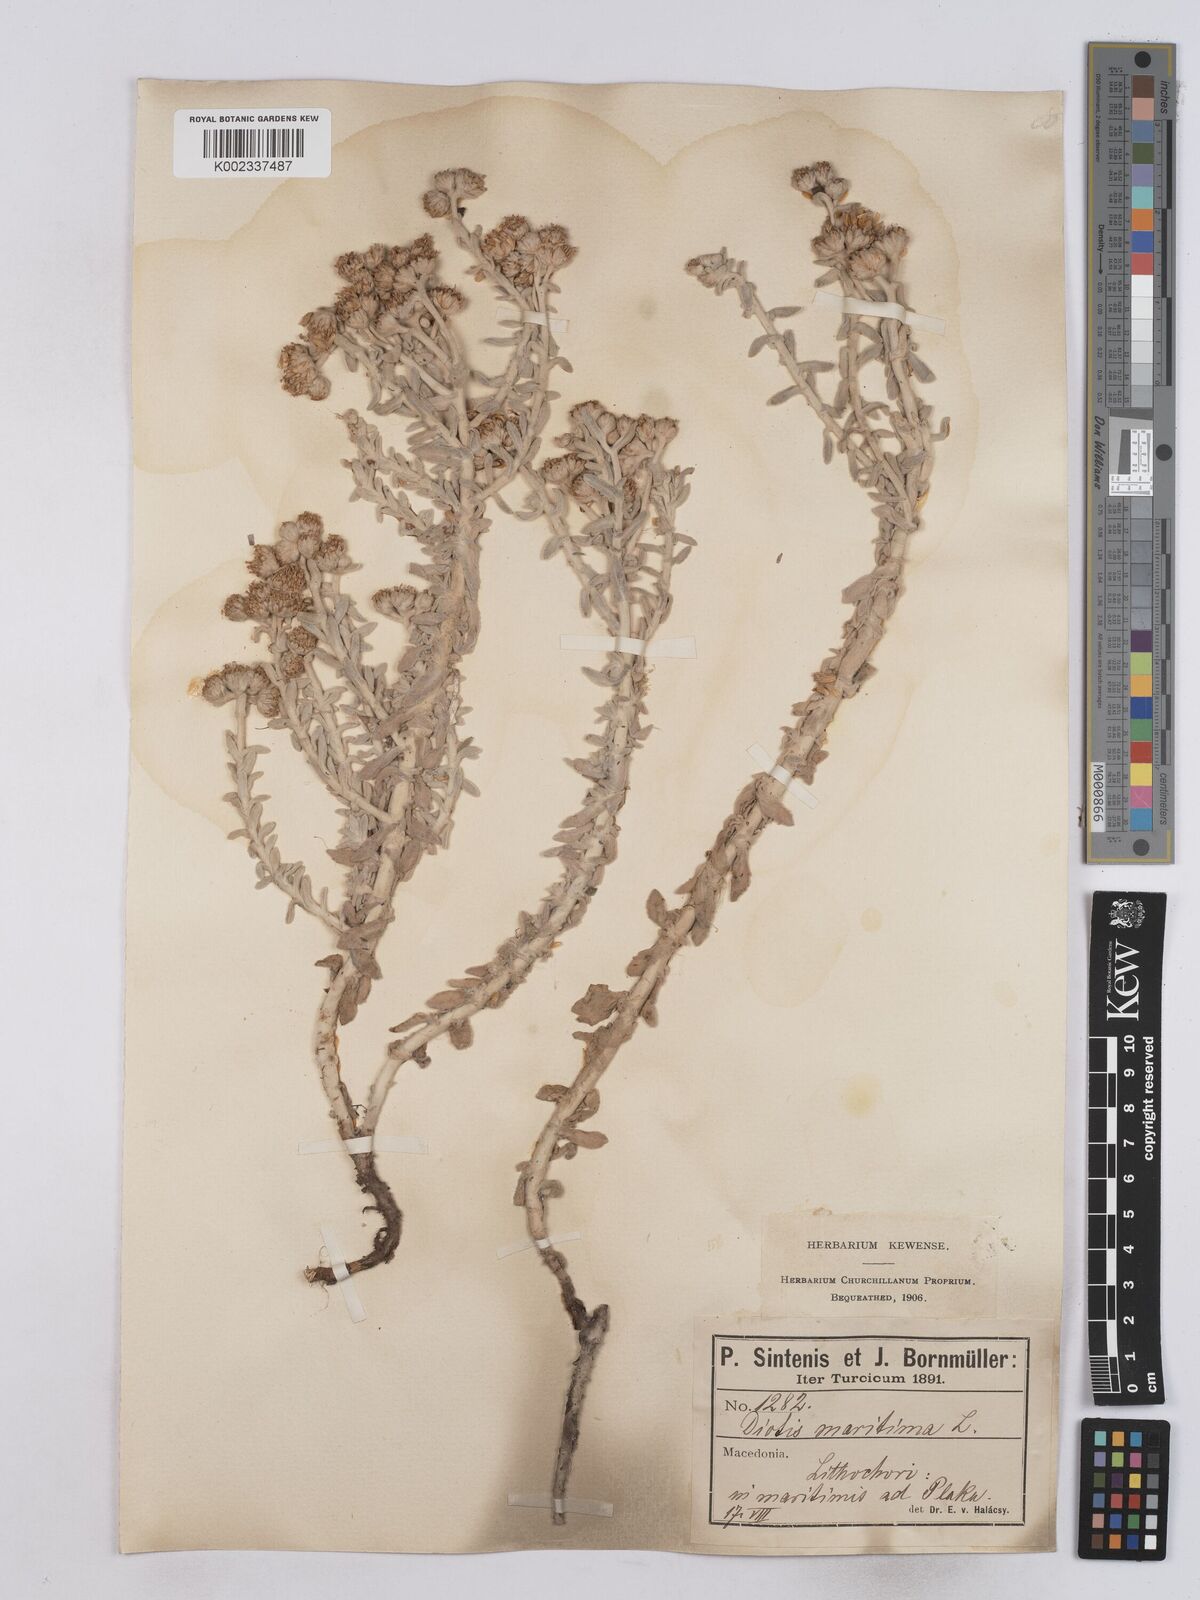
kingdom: Plantae
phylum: Tracheophyta
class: Magnoliopsida
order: Asterales
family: Asteraceae
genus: Achillea
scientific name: Achillea maritima
